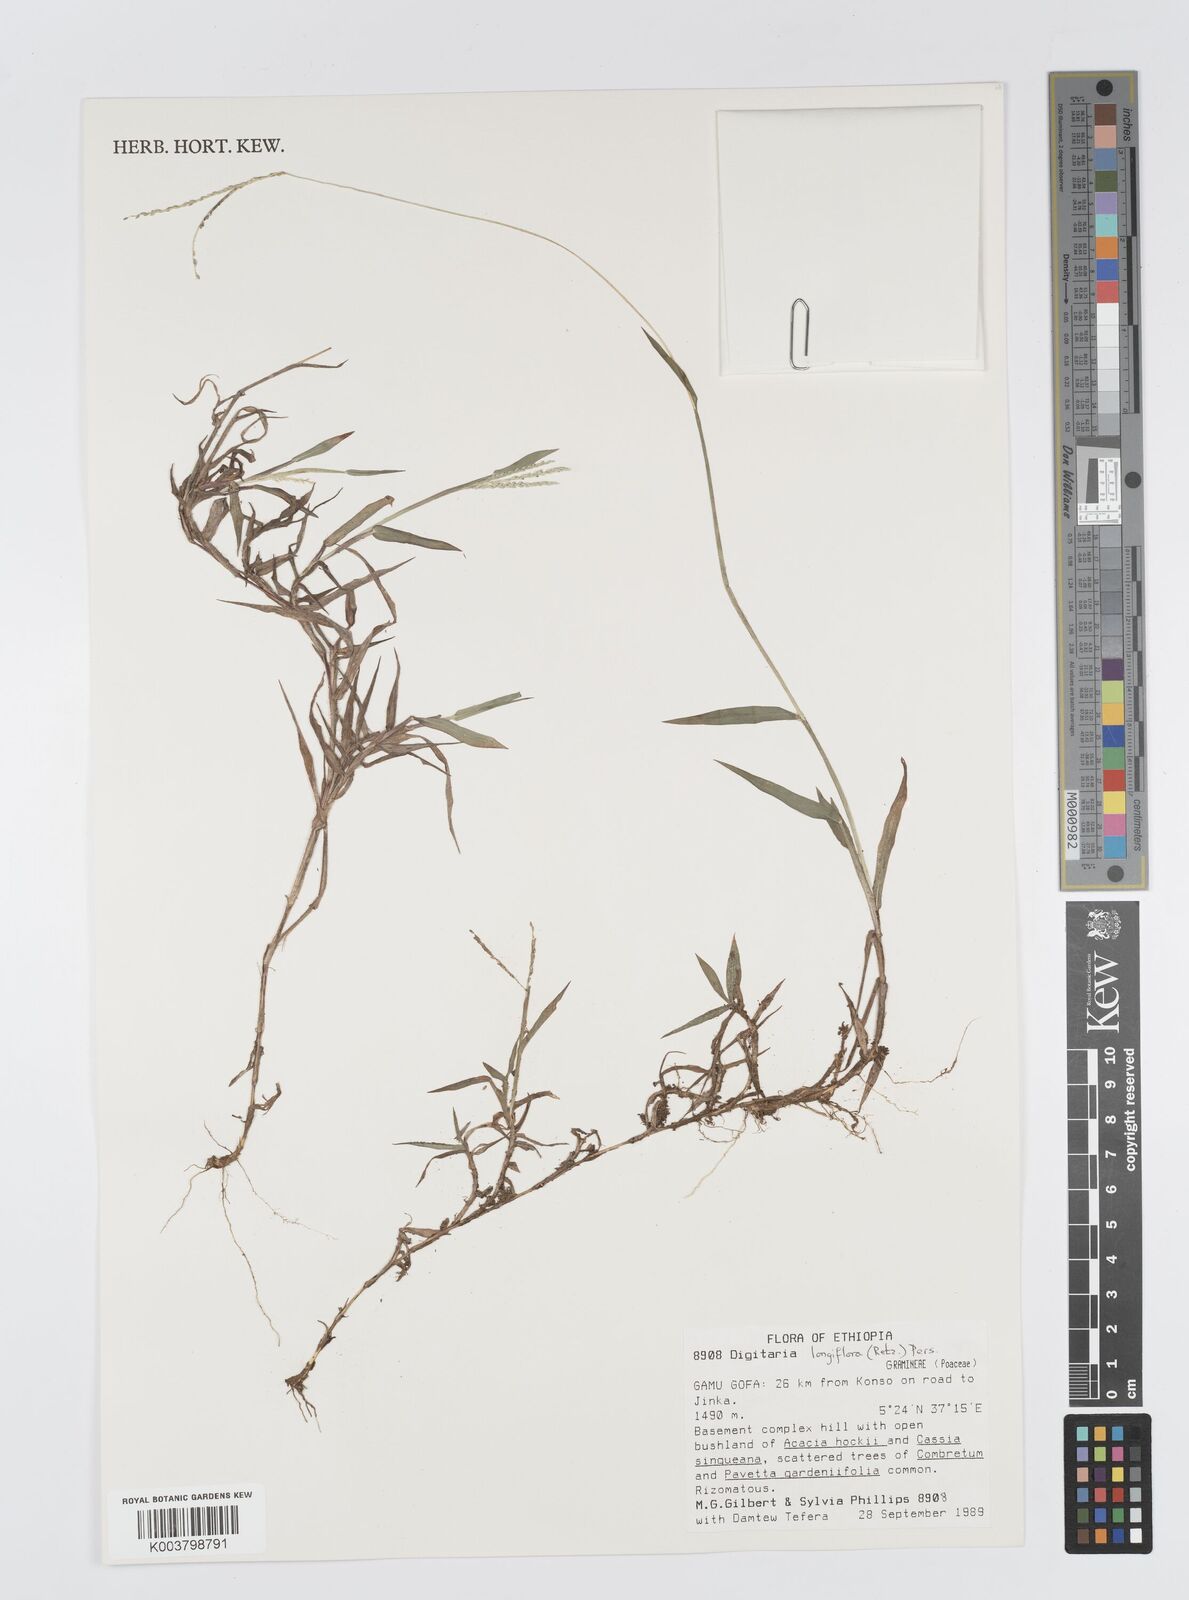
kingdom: Plantae
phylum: Tracheophyta
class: Liliopsida
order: Poales
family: Poaceae
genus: Digitaria
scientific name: Digitaria longiflora
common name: Wire crabgrass
